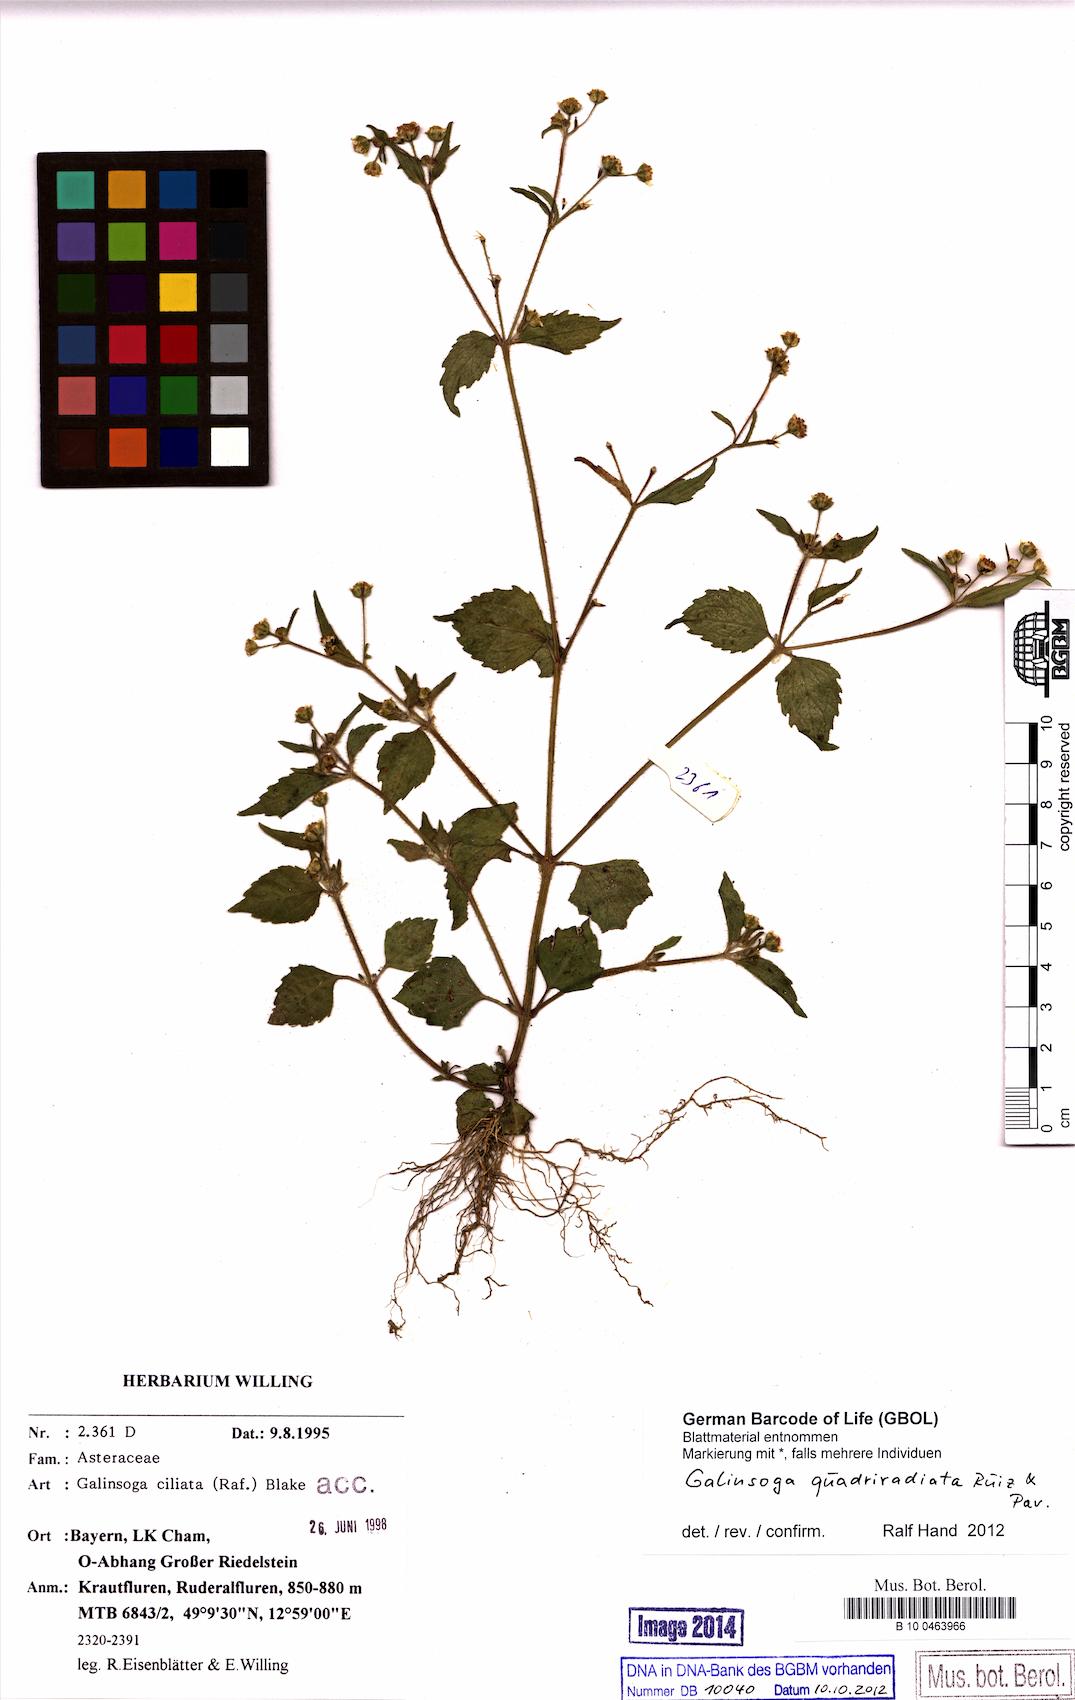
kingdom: Plantae
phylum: Tracheophyta
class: Magnoliopsida
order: Asterales
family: Asteraceae
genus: Galinsoga
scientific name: Galinsoga quadriradiata
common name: Shaggy soldier
